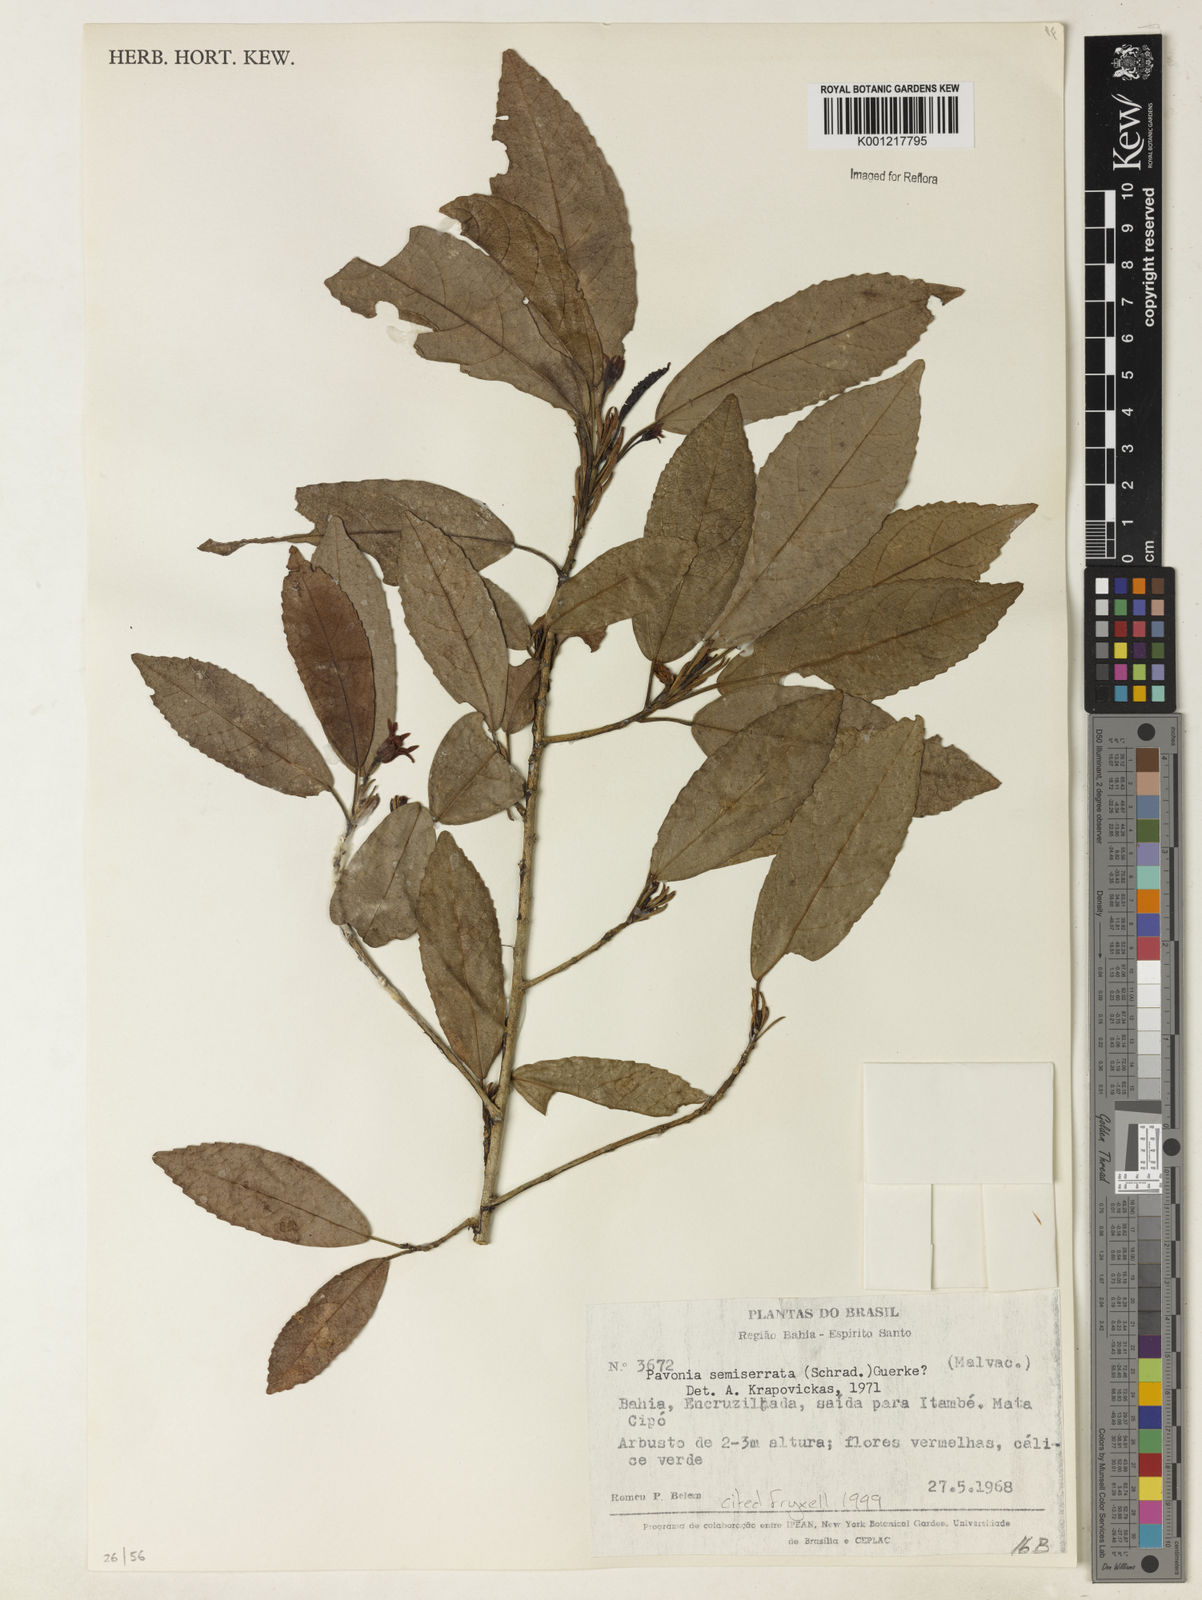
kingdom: Plantae
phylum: Tracheophyta
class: Magnoliopsida
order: Malvales
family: Malvaceae
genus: Pavonia
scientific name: Pavonia semiserrata
